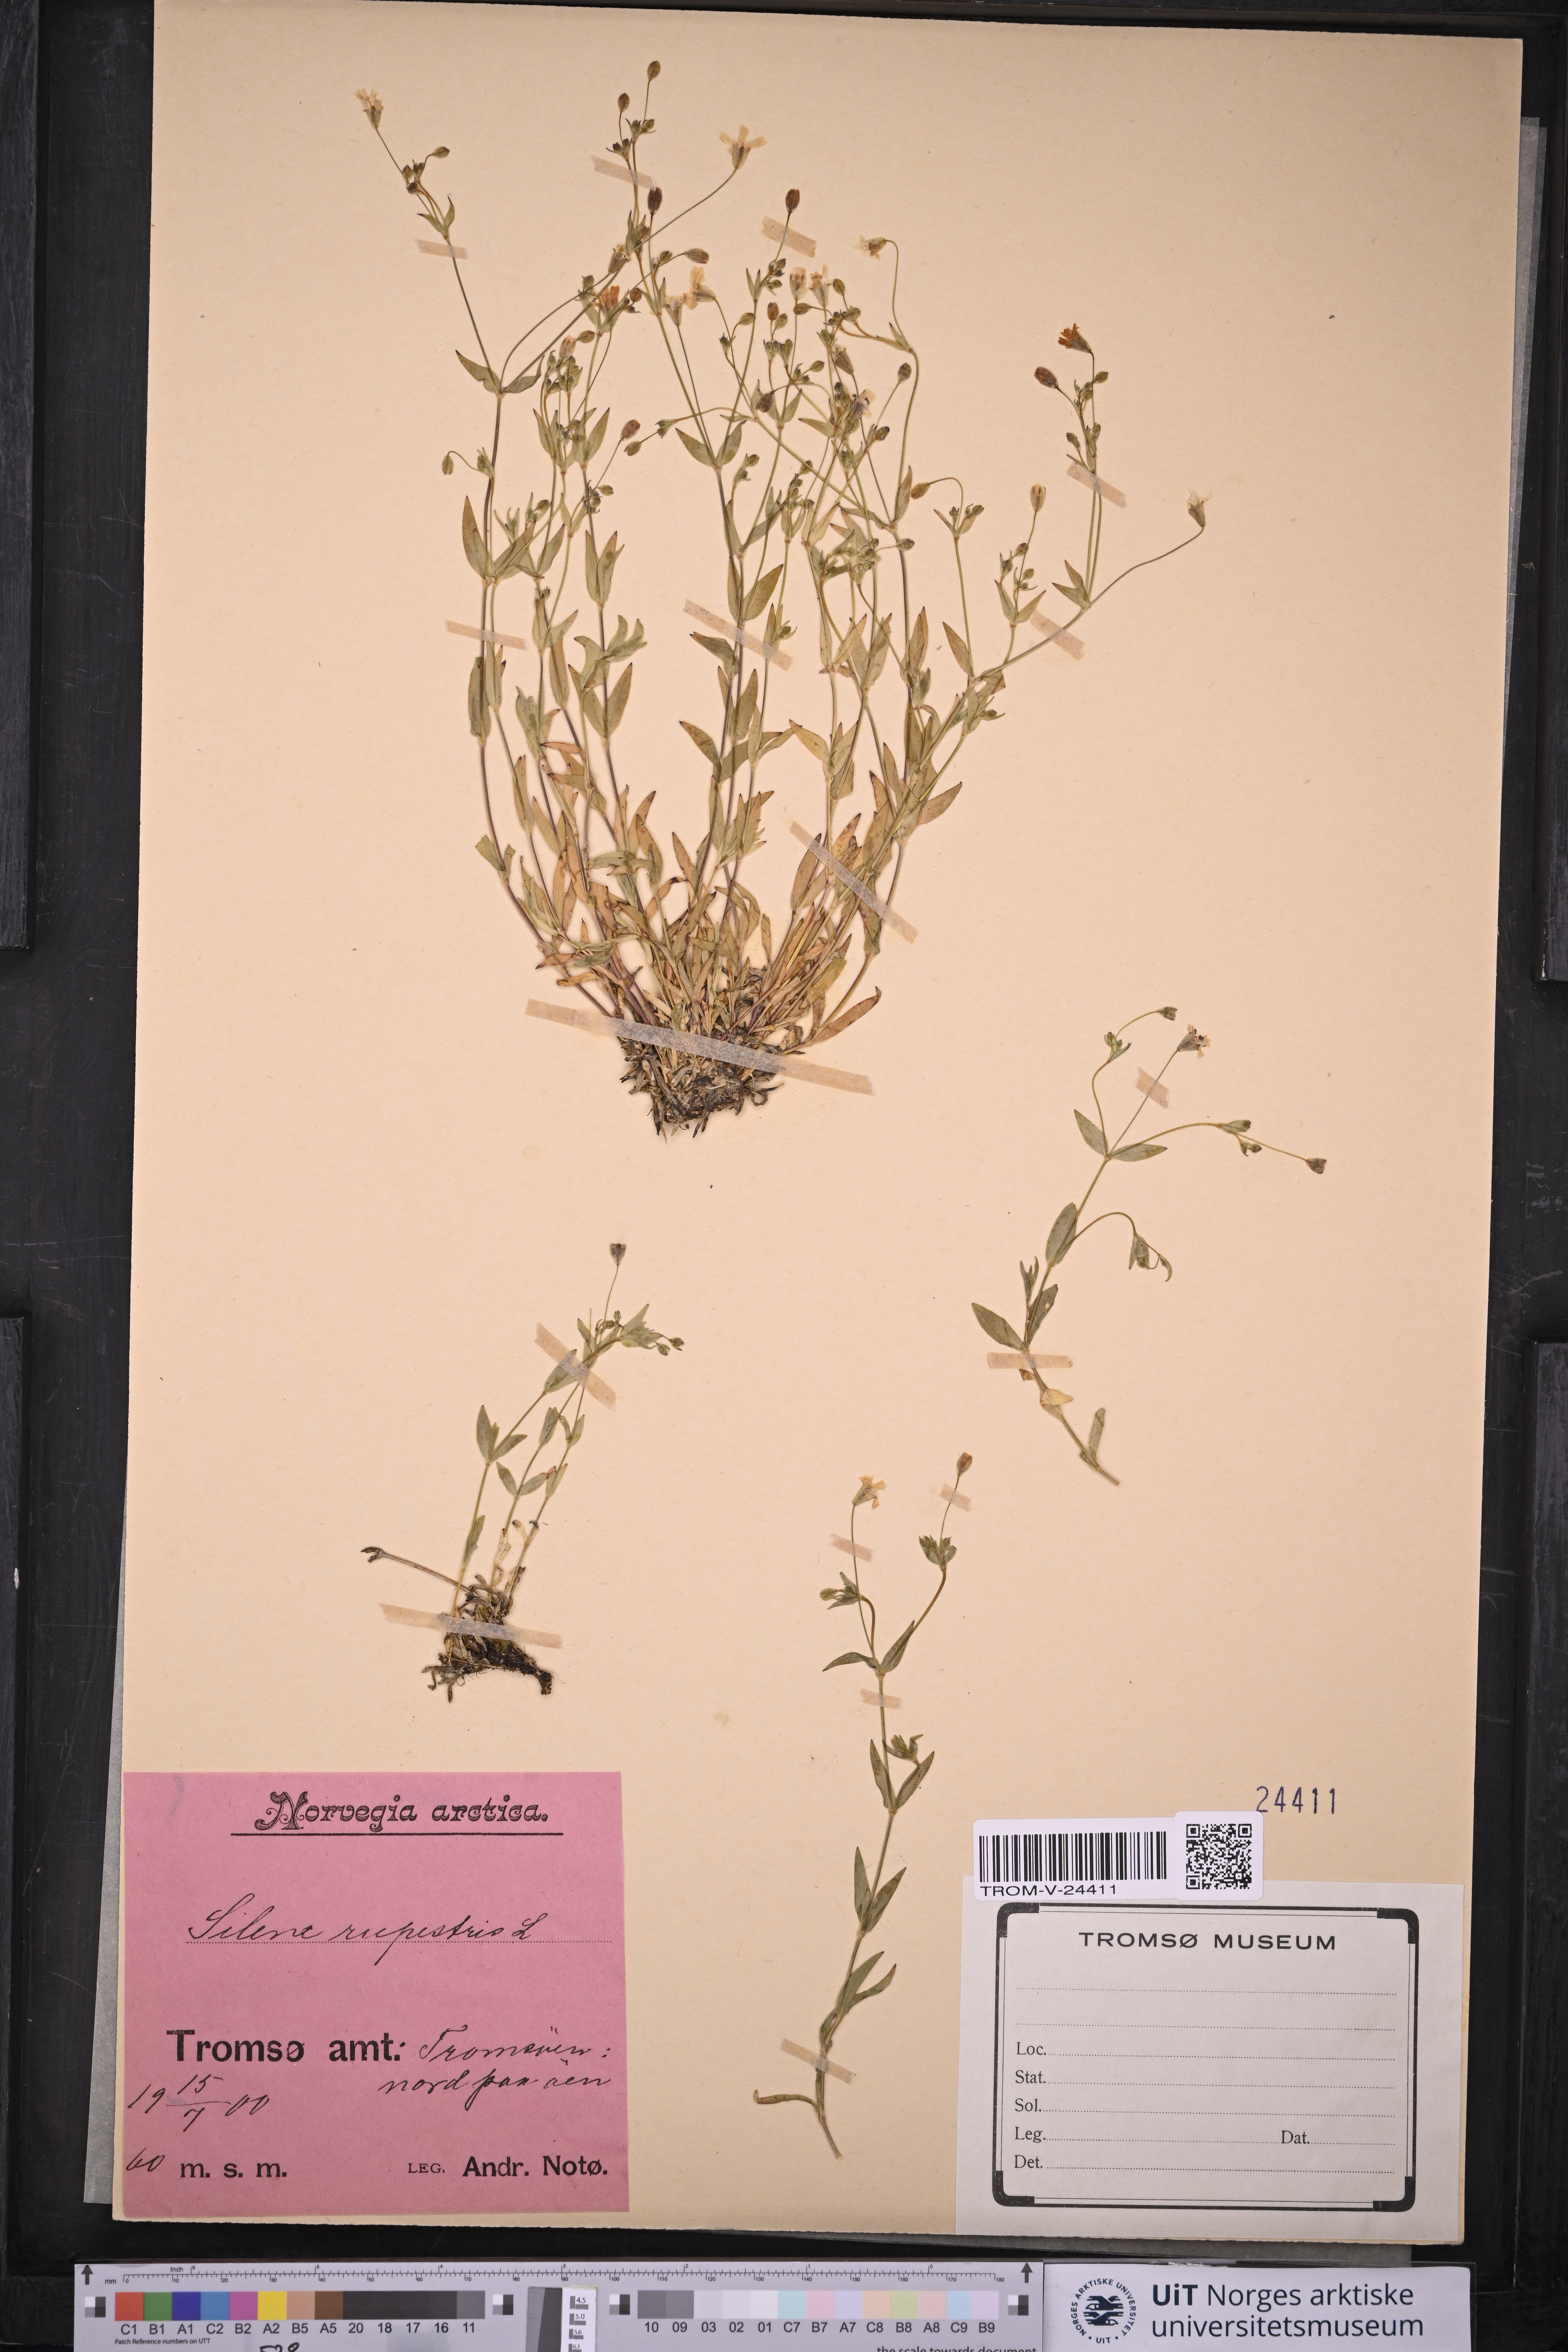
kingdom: Plantae
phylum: Tracheophyta
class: Magnoliopsida
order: Caryophyllales
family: Caryophyllaceae
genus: Atocion
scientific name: Atocion rupestre
